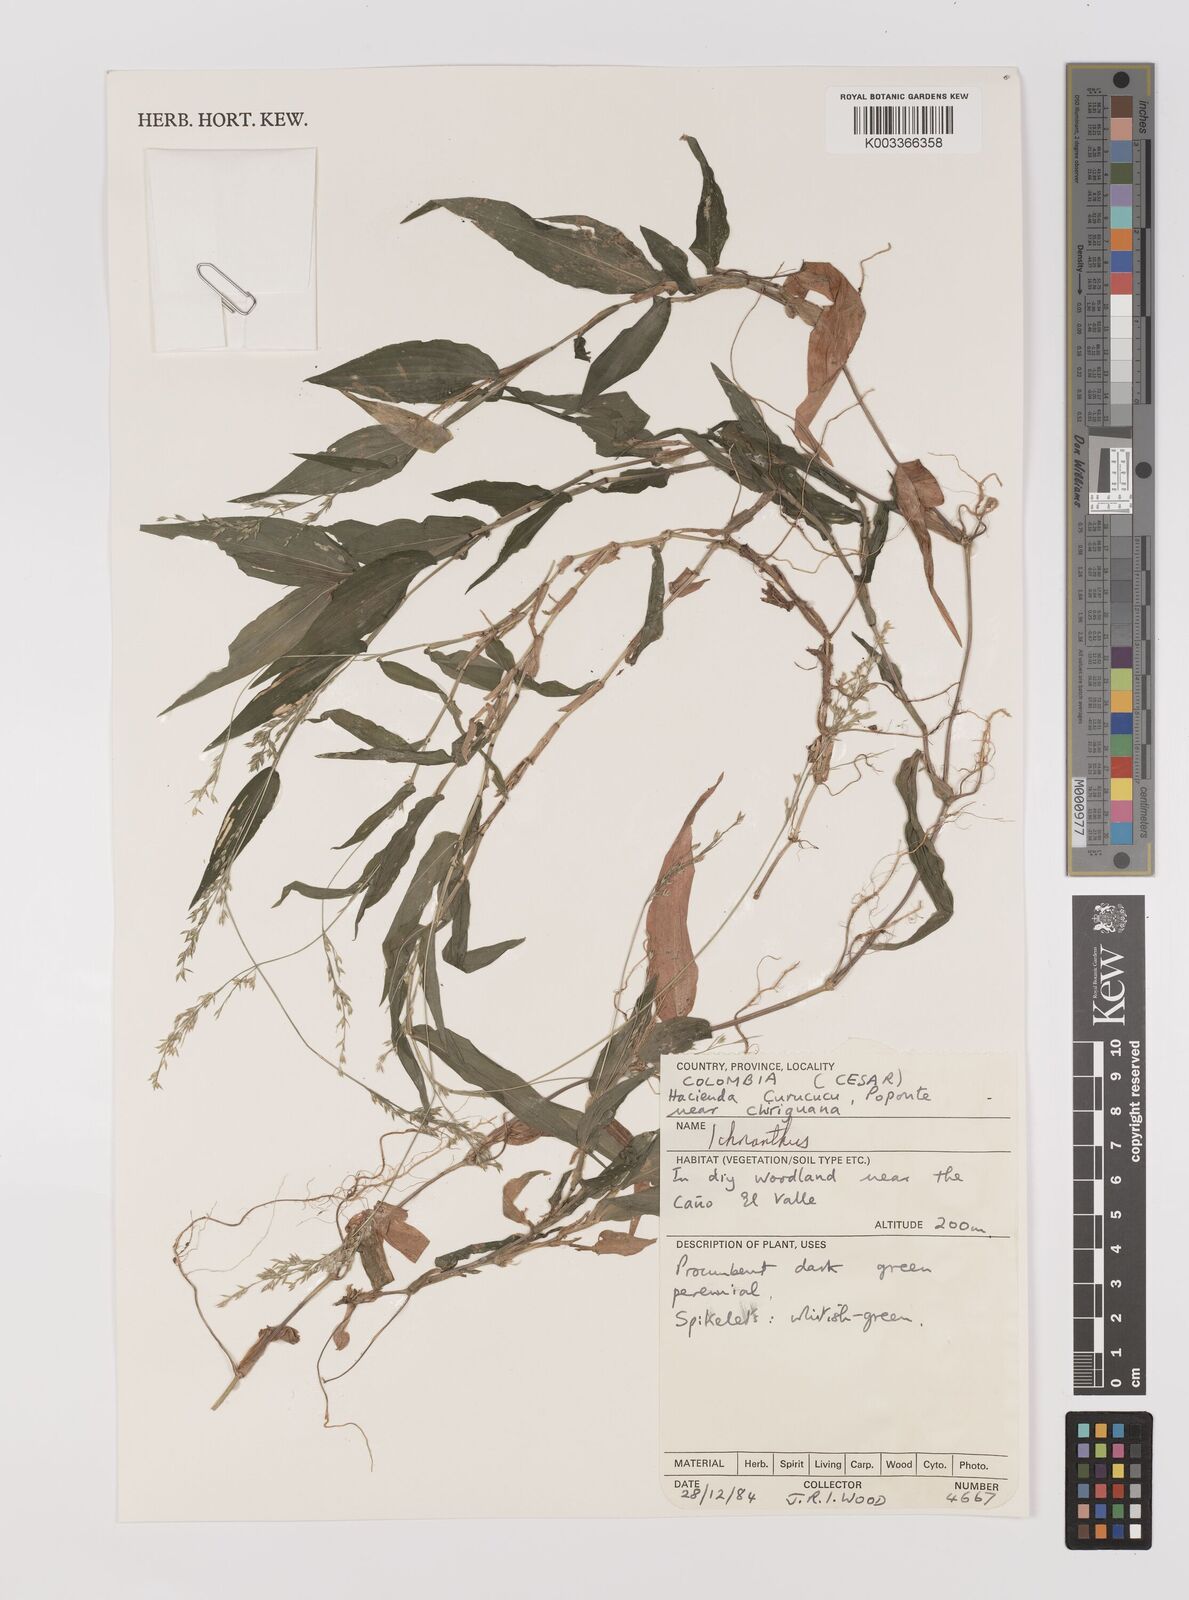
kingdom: Plantae
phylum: Tracheophyta
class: Liliopsida
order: Poales
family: Poaceae
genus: Ichnanthus
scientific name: Ichnanthus tenuis
